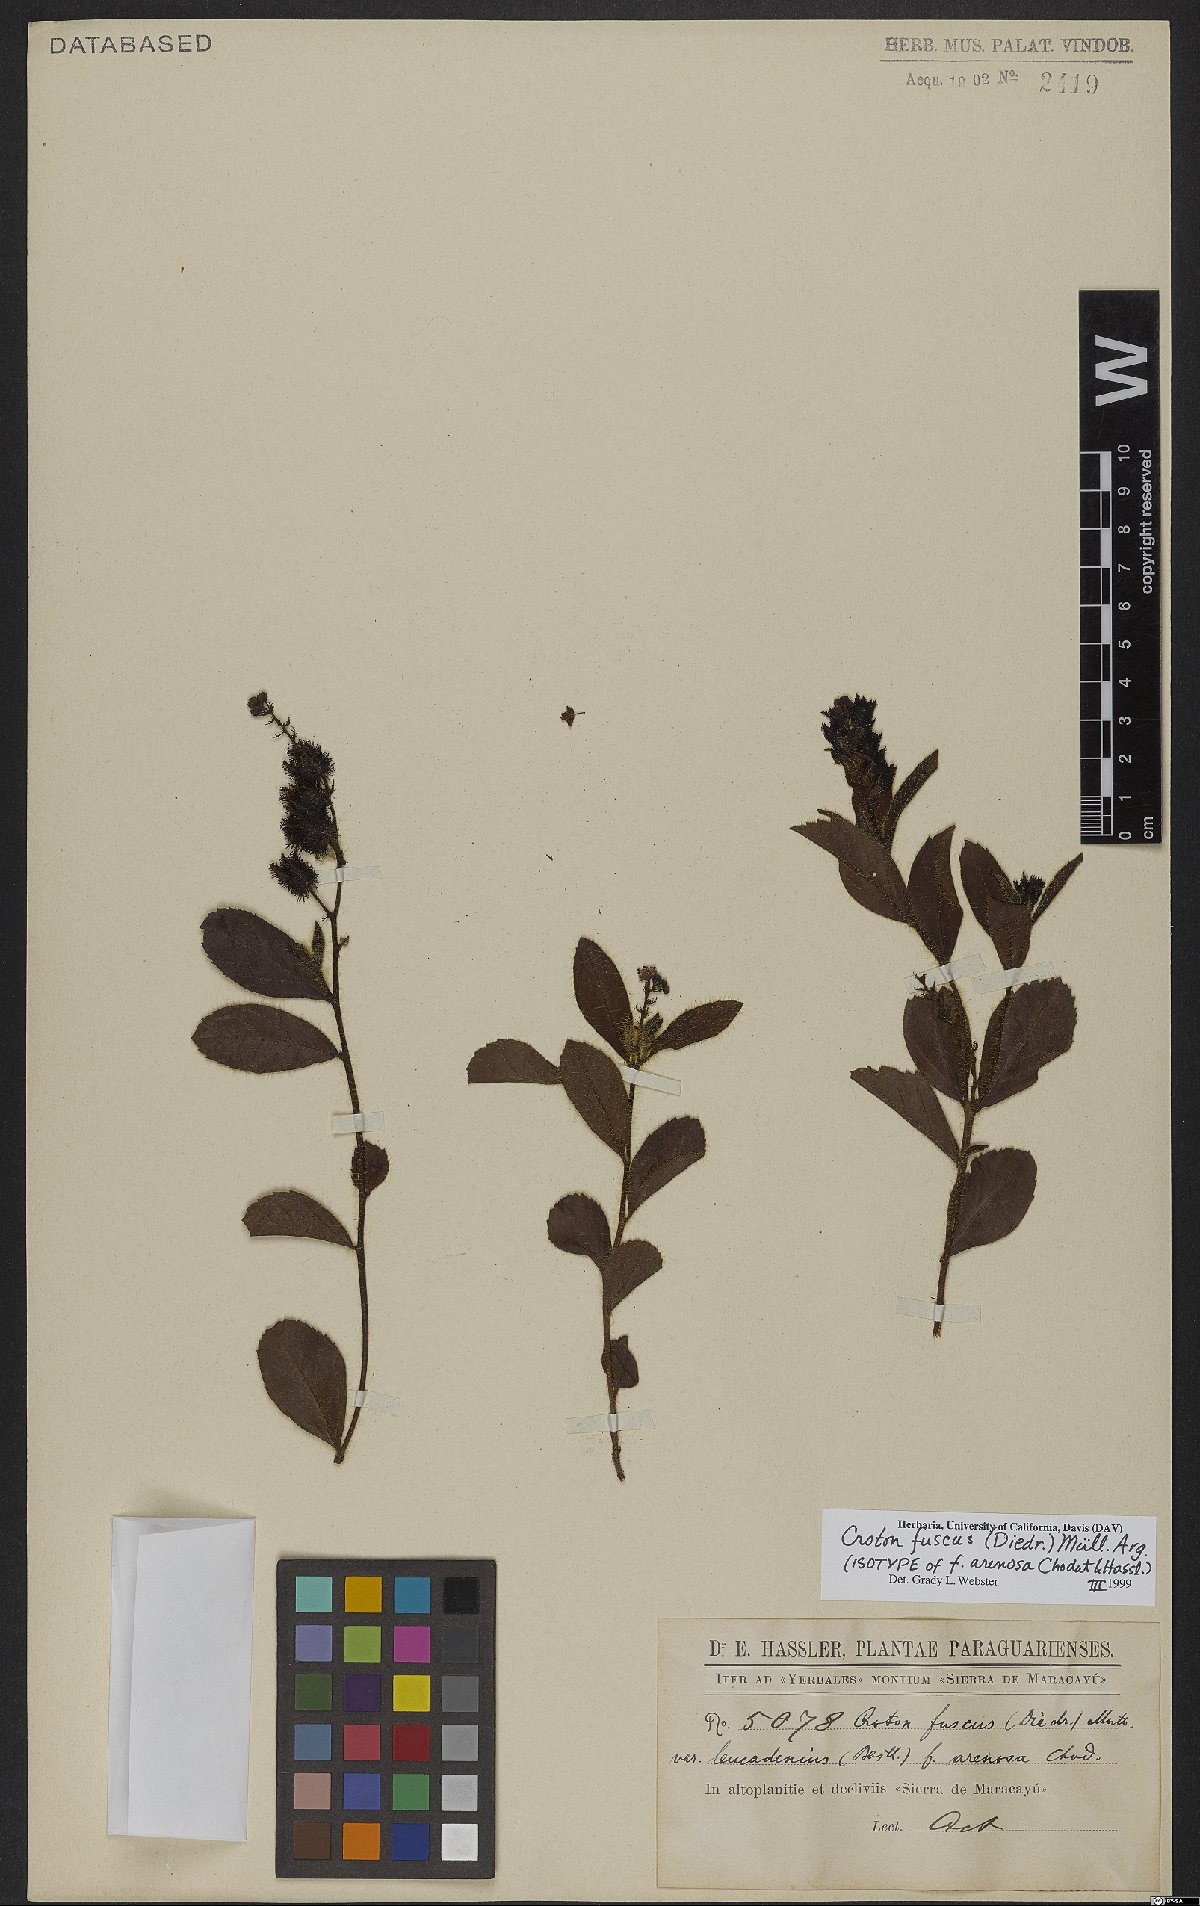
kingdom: Plantae
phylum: Tracheophyta
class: Magnoliopsida
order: Malpighiales
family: Euphorbiaceae
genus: Croton
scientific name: Croton fuscus
